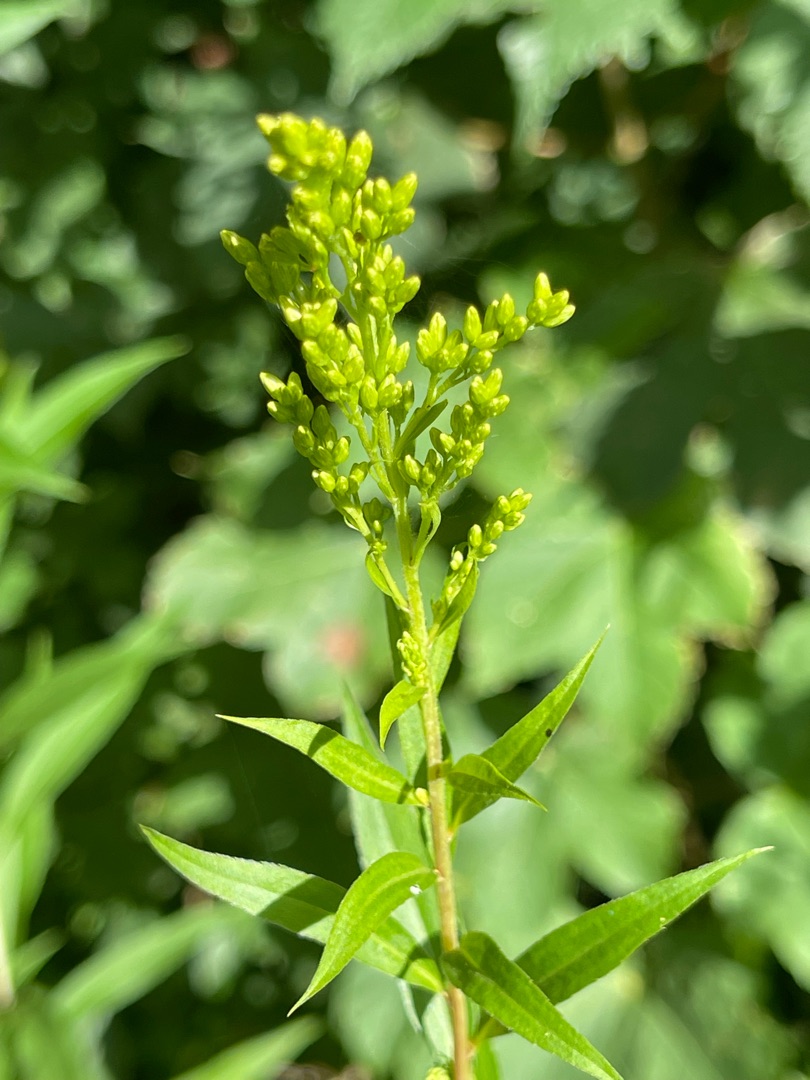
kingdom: Plantae
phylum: Tracheophyta
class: Magnoliopsida
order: Asterales
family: Asteraceae
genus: Solidago
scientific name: Solidago canadensis
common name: Kanadisk gyldenris
